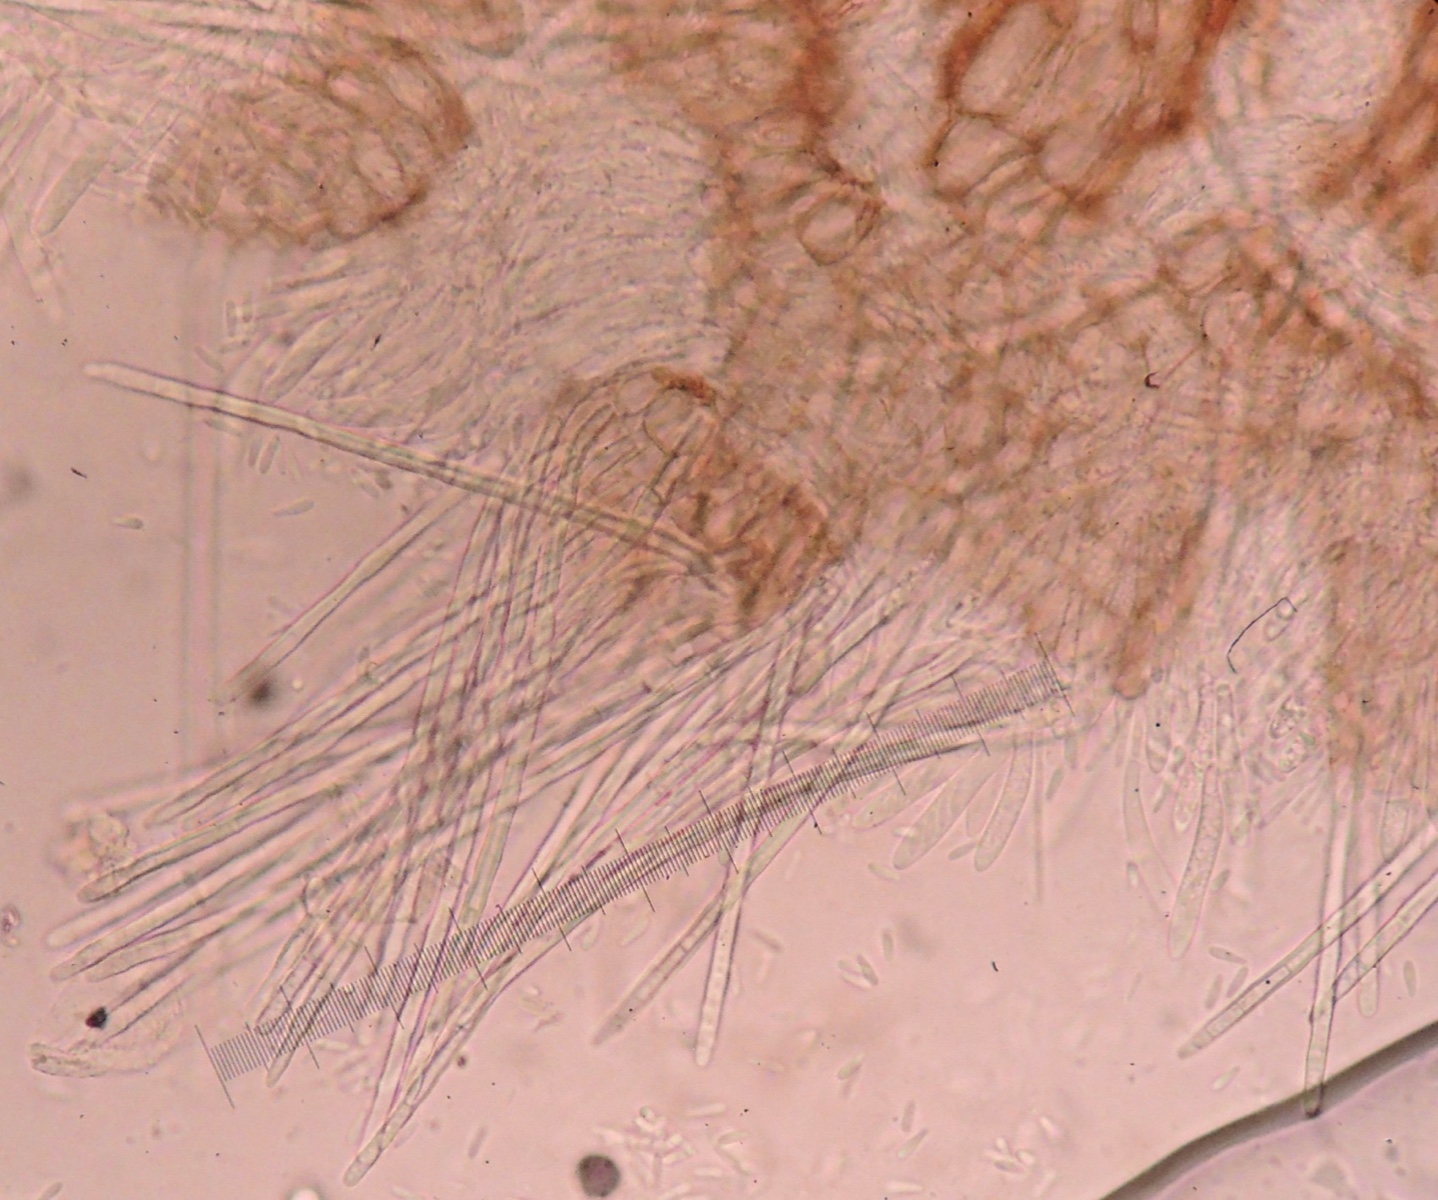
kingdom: Fungi
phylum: Ascomycota
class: Leotiomycetes
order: Helotiales
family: Hyaloscyphaceae
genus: Urceolella
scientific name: Urceolella corticicola
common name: pors-kugleskive
